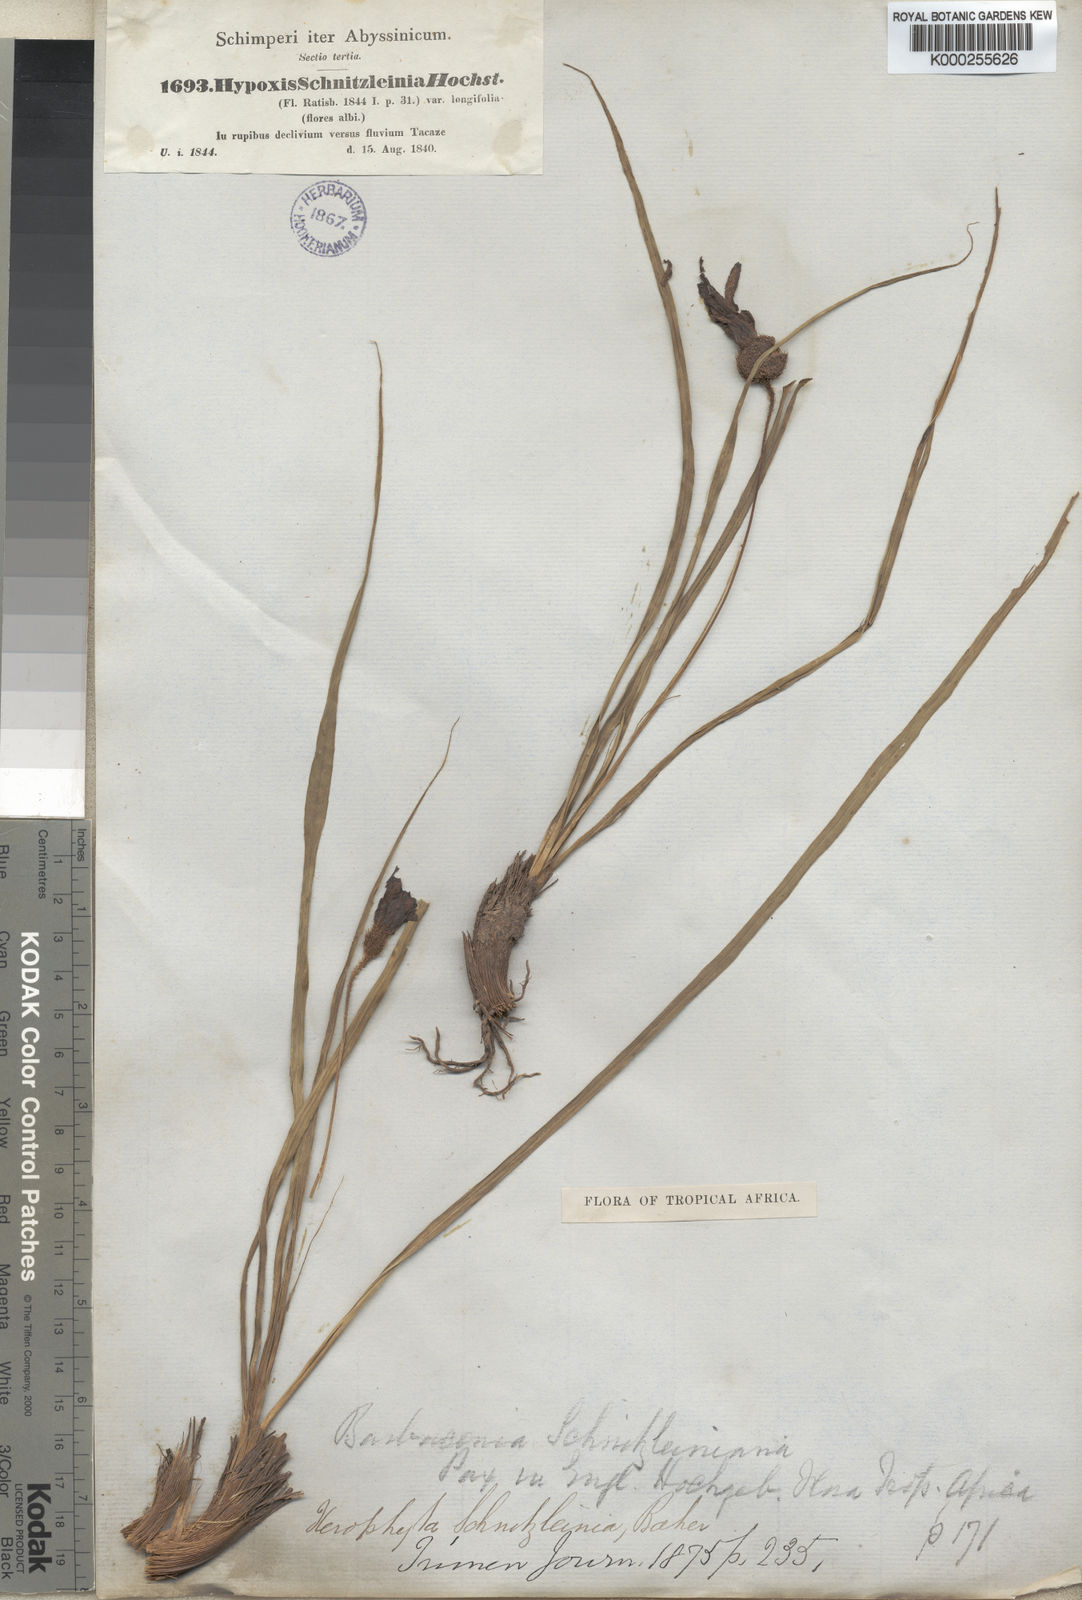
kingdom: Plantae
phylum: Tracheophyta
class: Liliopsida
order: Pandanales
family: Velloziaceae
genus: Xerophyta
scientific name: Xerophyta schnizleinia
